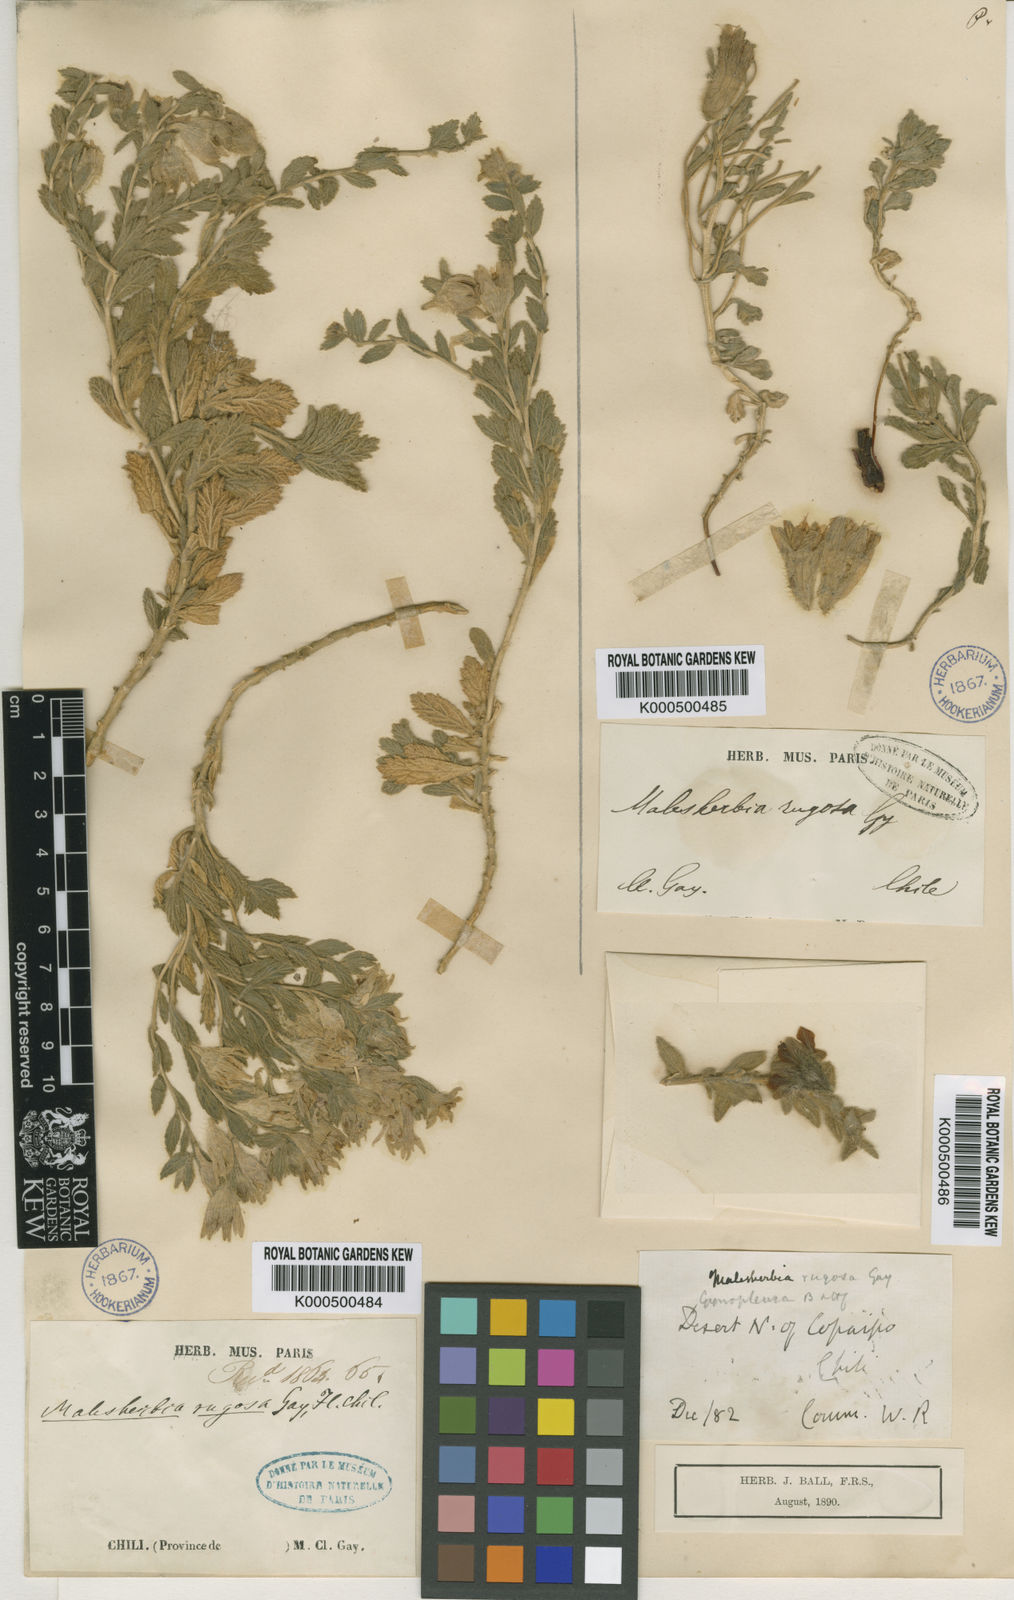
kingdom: Plantae
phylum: Tracheophyta
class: Magnoliopsida
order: Malpighiales
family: Malesherbiaceae
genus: Malesherbia
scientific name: Malesherbia solanoides
